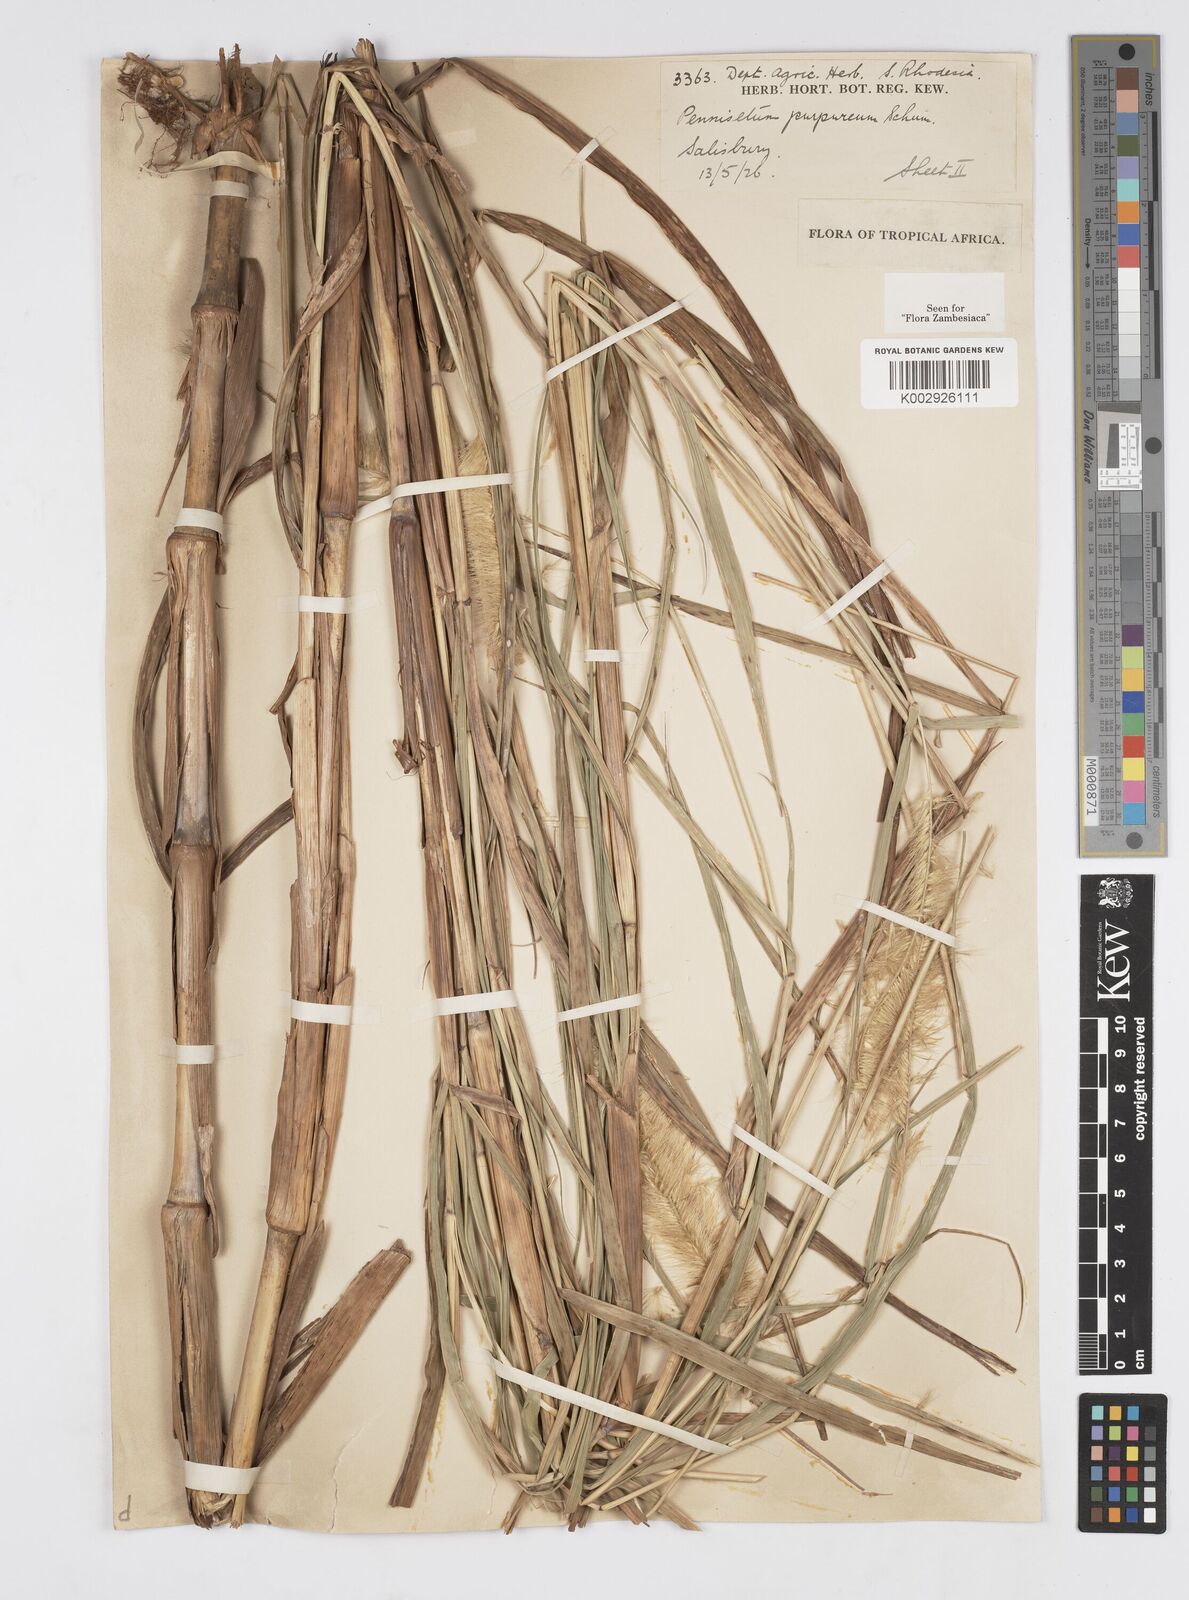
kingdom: Plantae
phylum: Tracheophyta
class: Liliopsida
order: Poales
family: Poaceae
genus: Cenchrus
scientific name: Cenchrus purpureus
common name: Elephant grass
